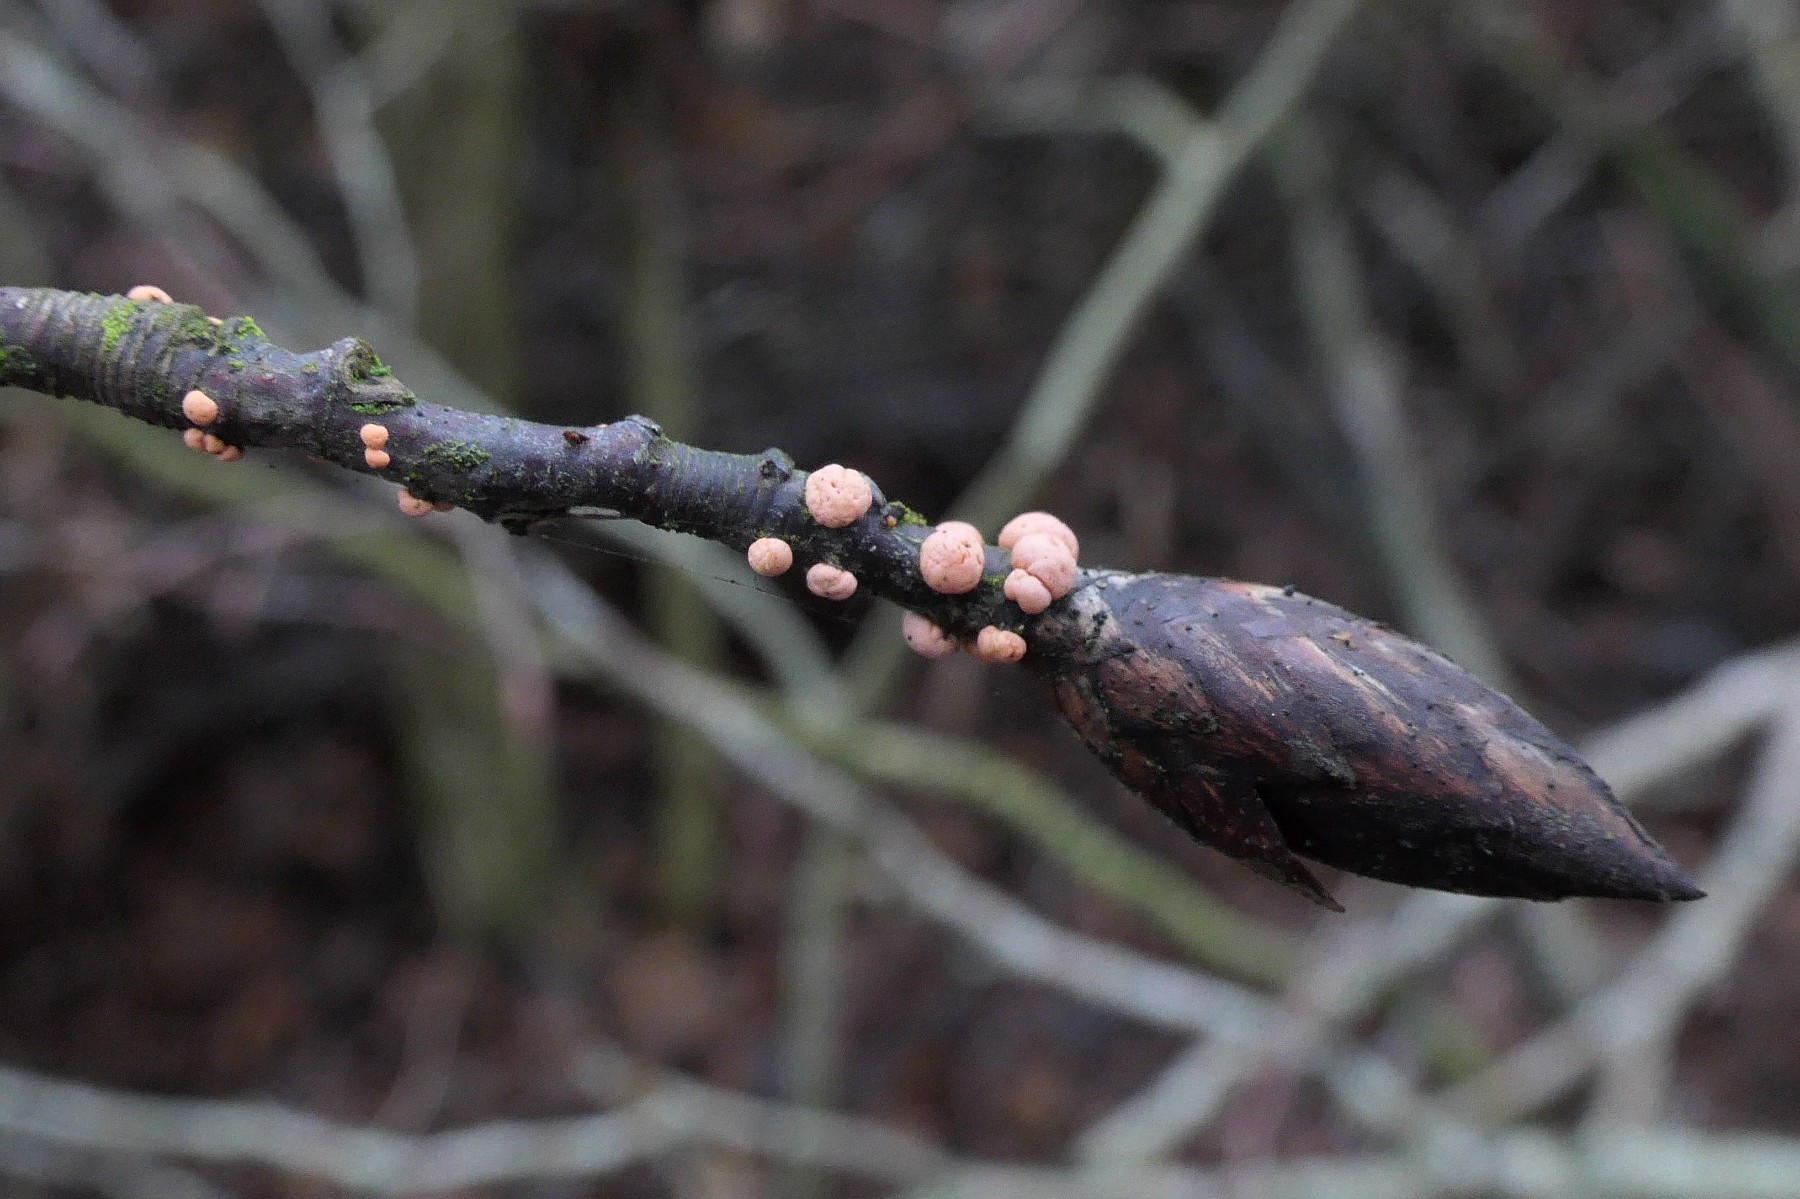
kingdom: Fungi
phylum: Ascomycota
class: Sordariomycetes
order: Hypocreales
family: Nectriaceae
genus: Nectria
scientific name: Nectria cinnabarina
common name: almindelig cinnobersvamp
